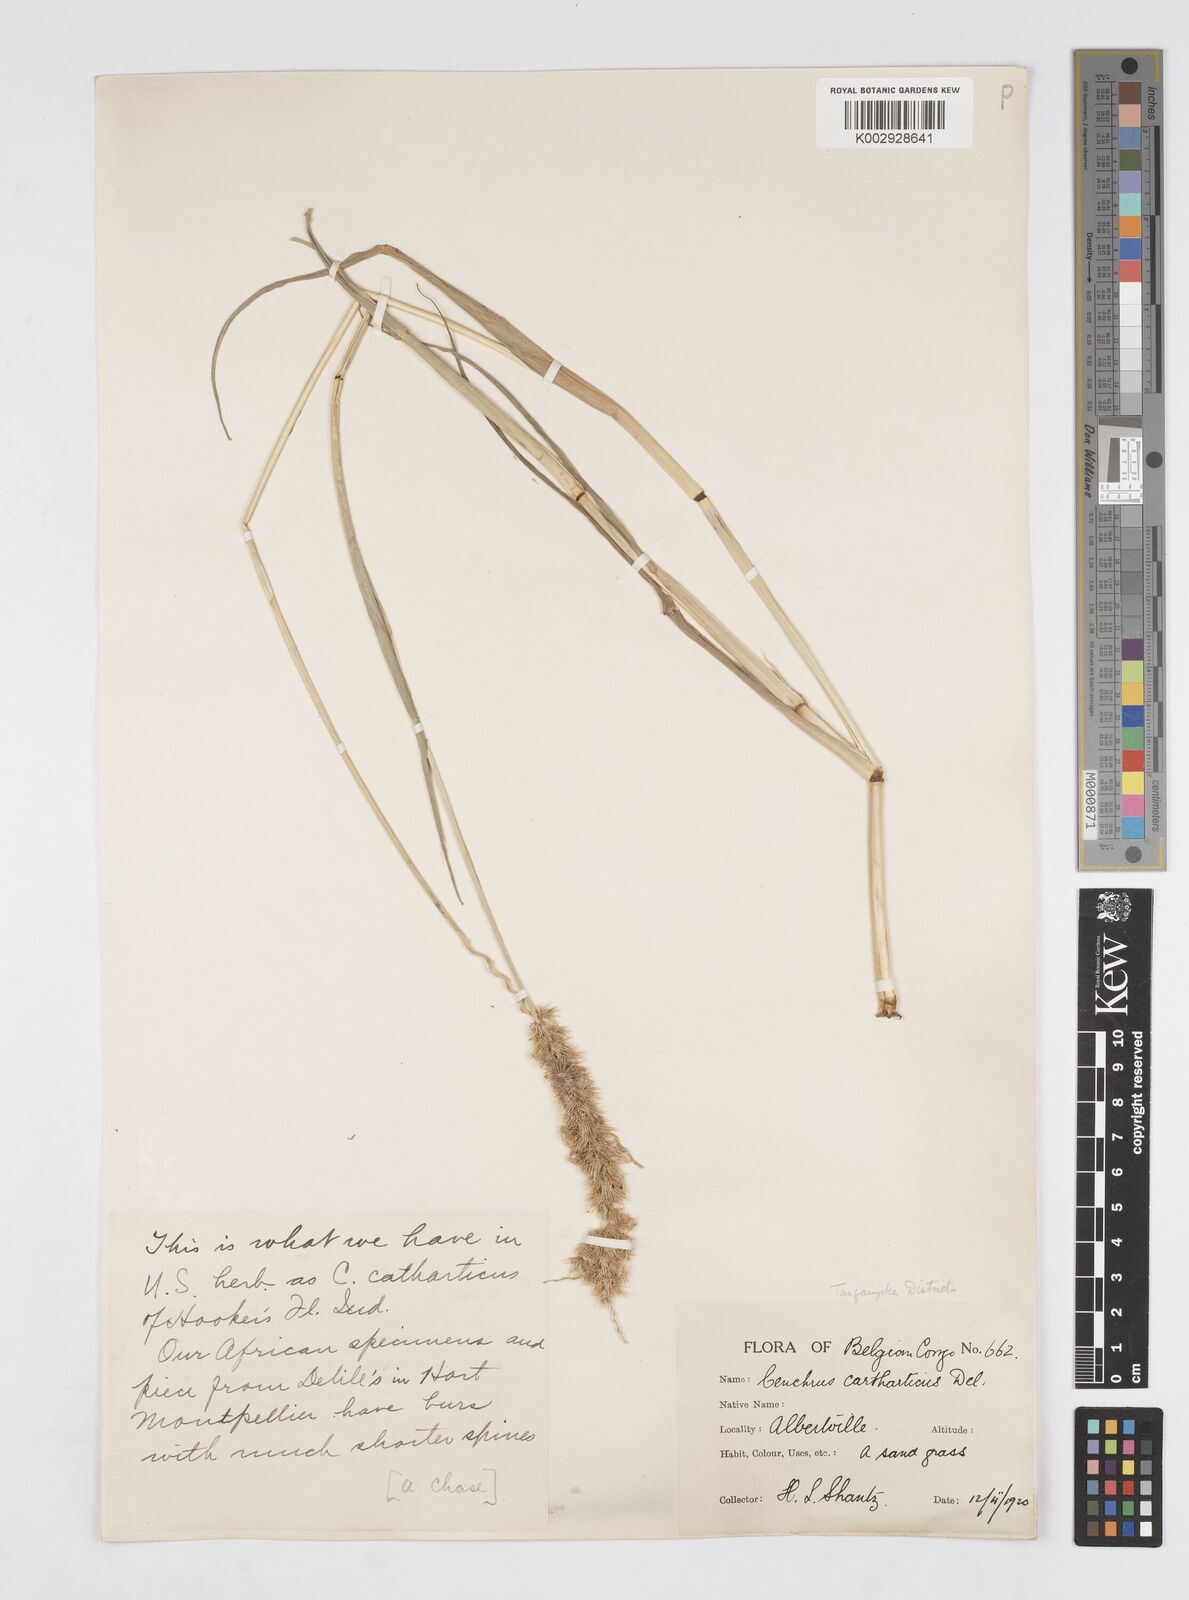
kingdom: Plantae
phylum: Tracheophyta
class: Liliopsida
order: Poales
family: Poaceae
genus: Cenchrus
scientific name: Cenchrus biflorus
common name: Indian sandbur
